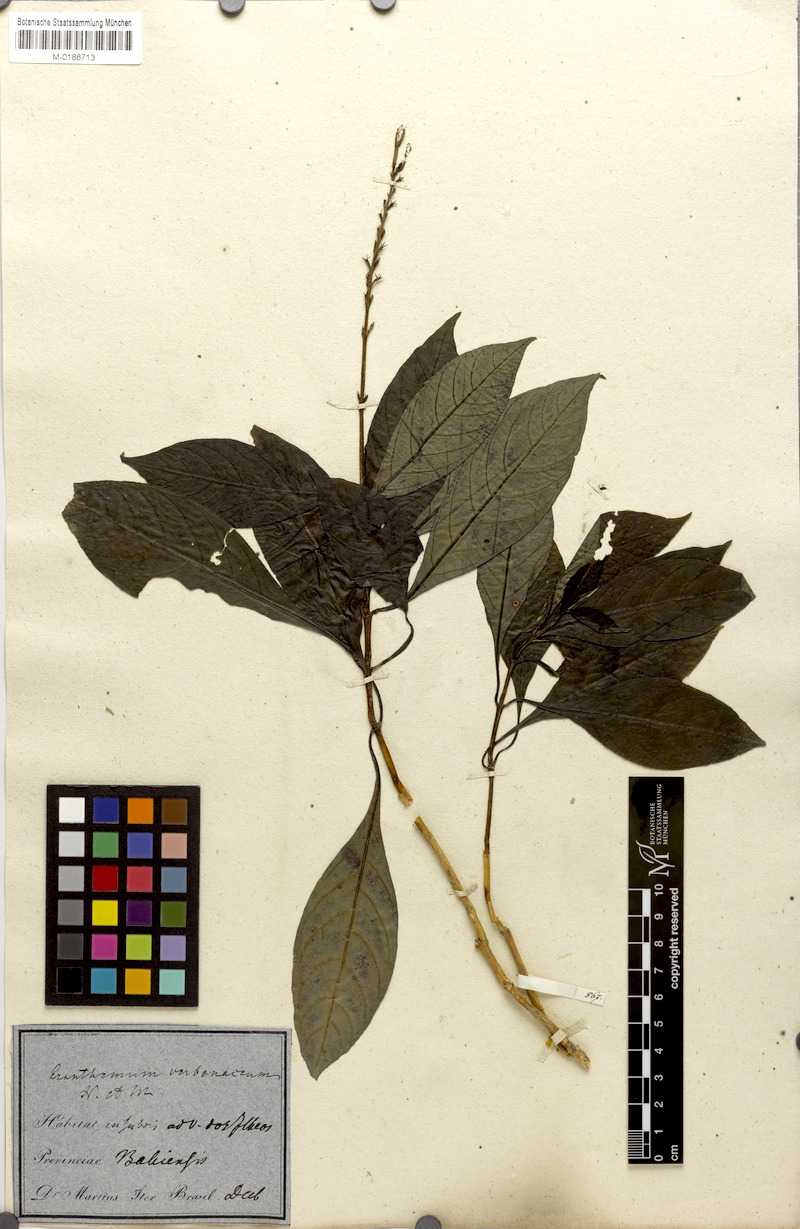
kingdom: Plantae
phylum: Tracheophyta
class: Magnoliopsida
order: Lamiales
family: Acanthaceae
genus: Pseuderanthemum
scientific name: Pseuderanthemum verbenaceum
